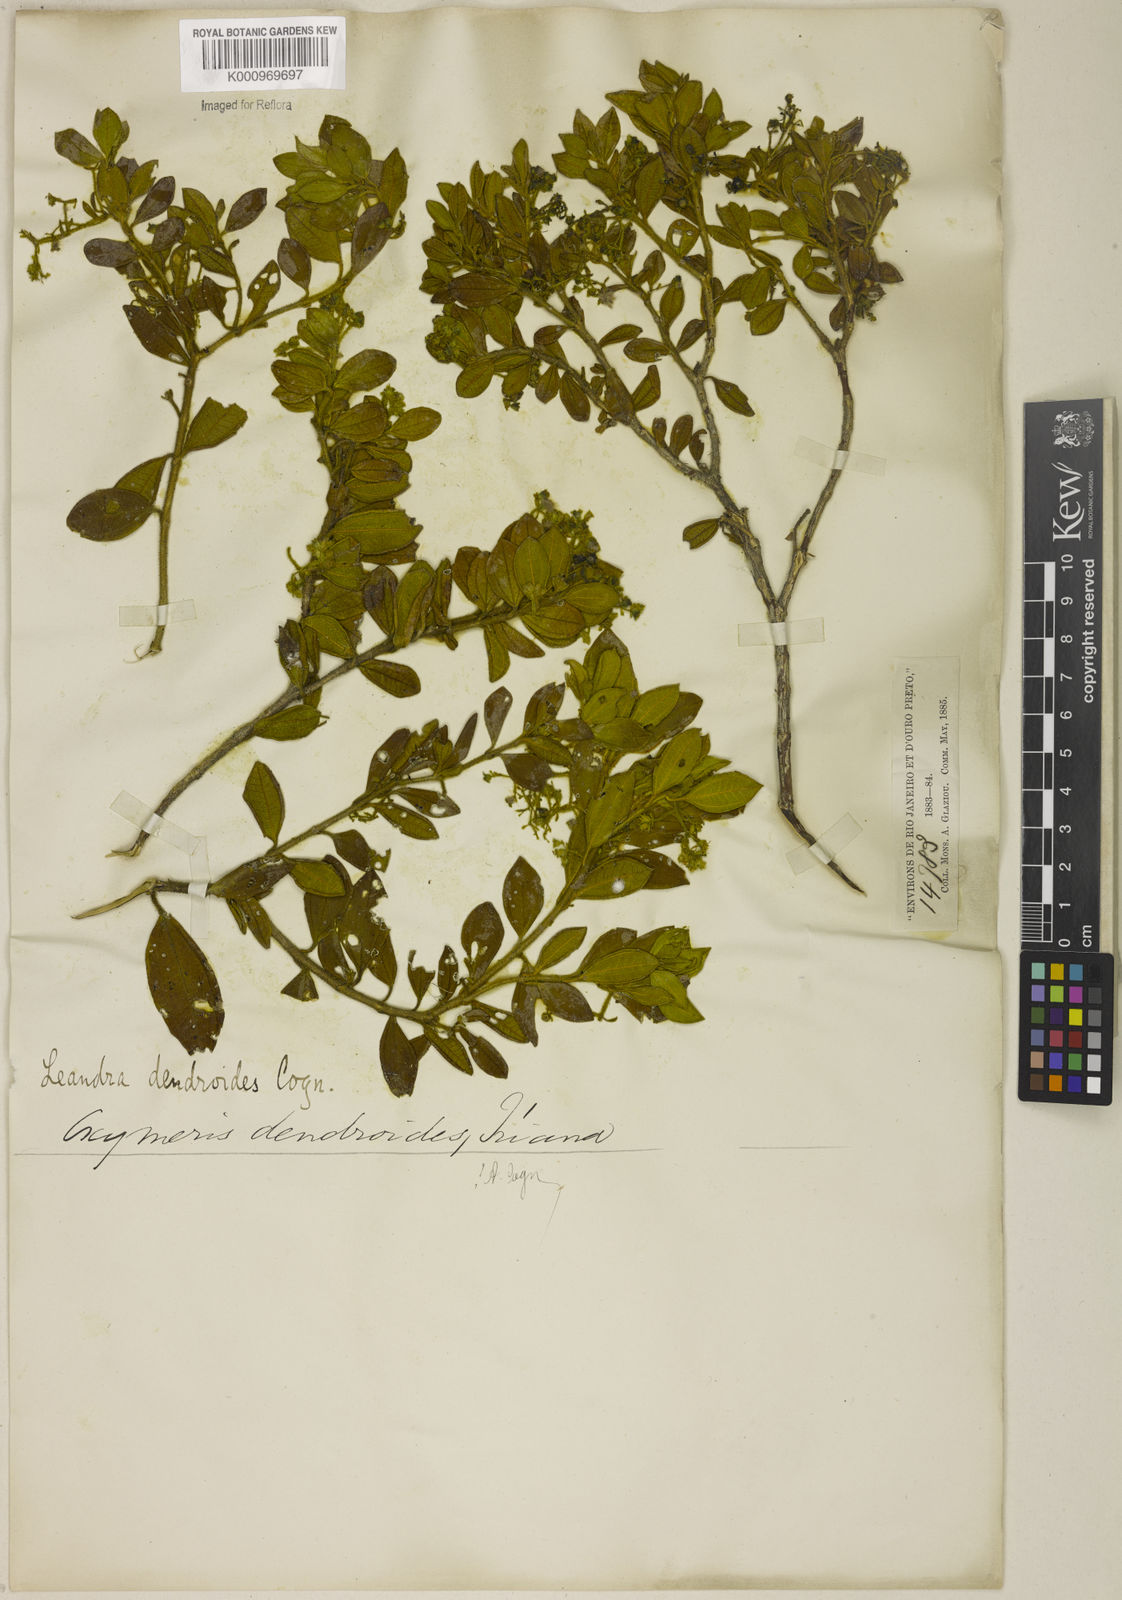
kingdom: Plantae
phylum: Tracheophyta
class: Magnoliopsida
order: Myrtales
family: Melastomataceae
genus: Miconia
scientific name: Miconia dendroides
